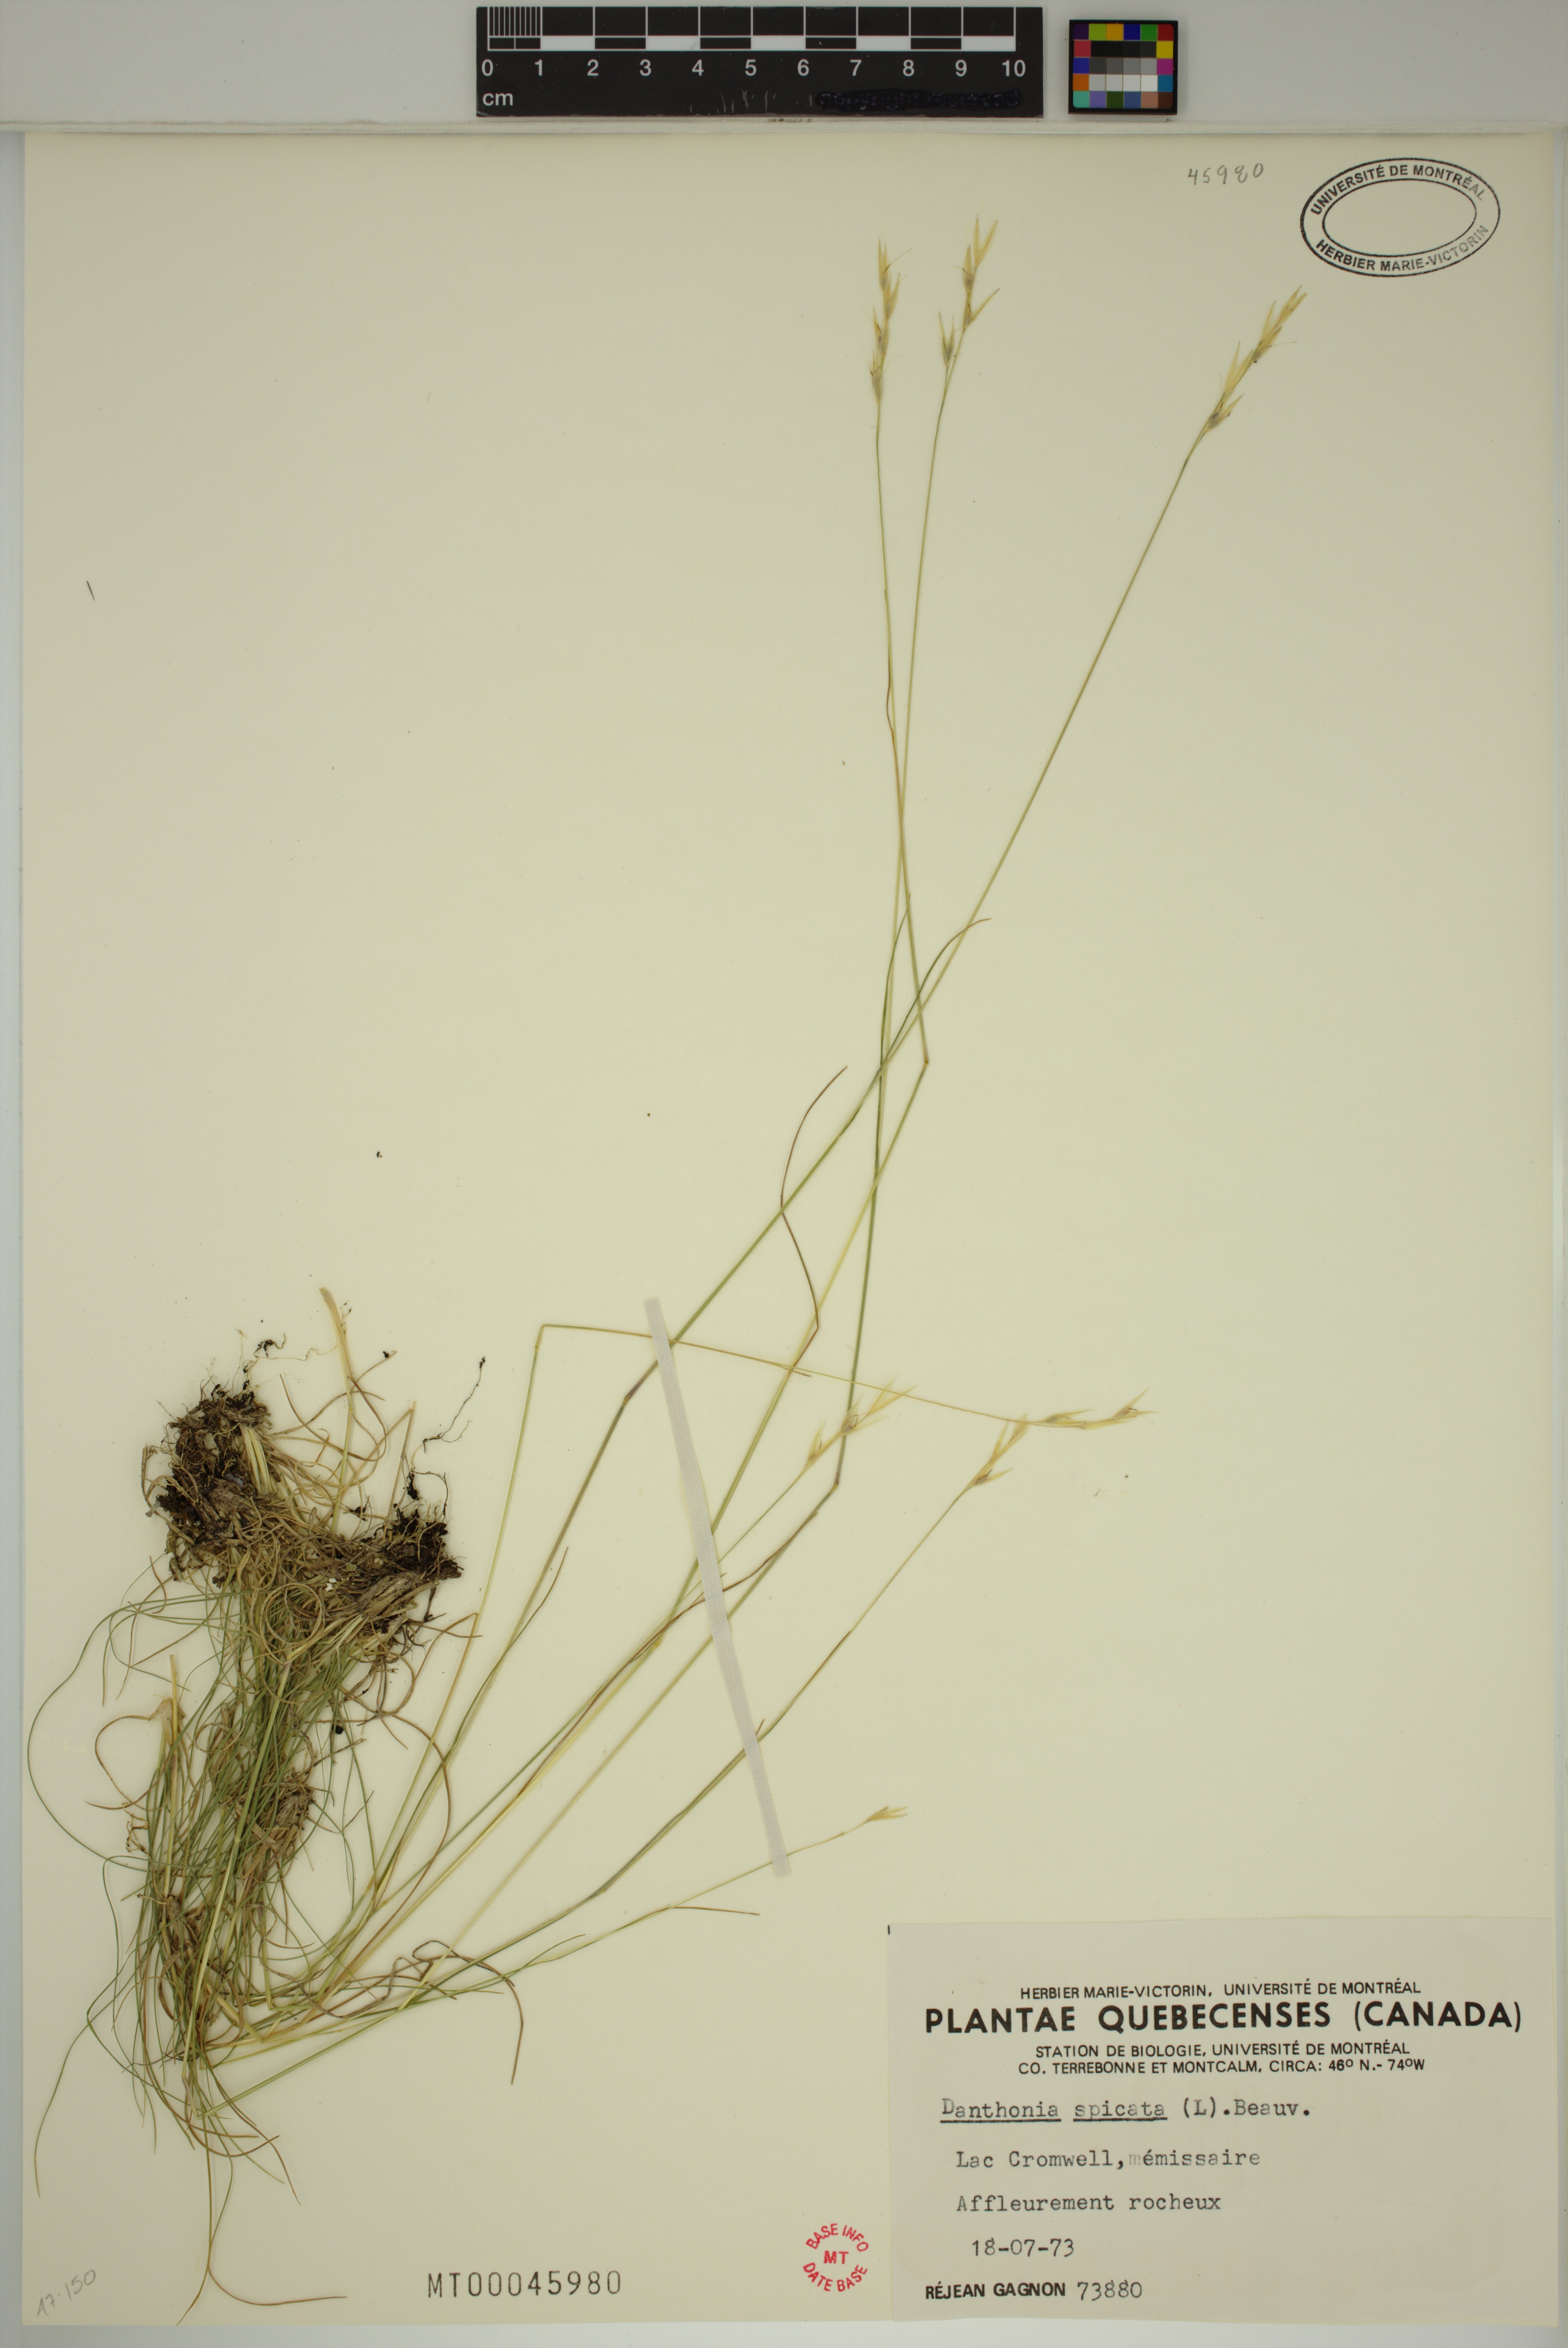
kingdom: Plantae
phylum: Tracheophyta
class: Liliopsida
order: Poales
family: Poaceae
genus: Danthonia
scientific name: Danthonia spicata
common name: Common wild oatgrass
